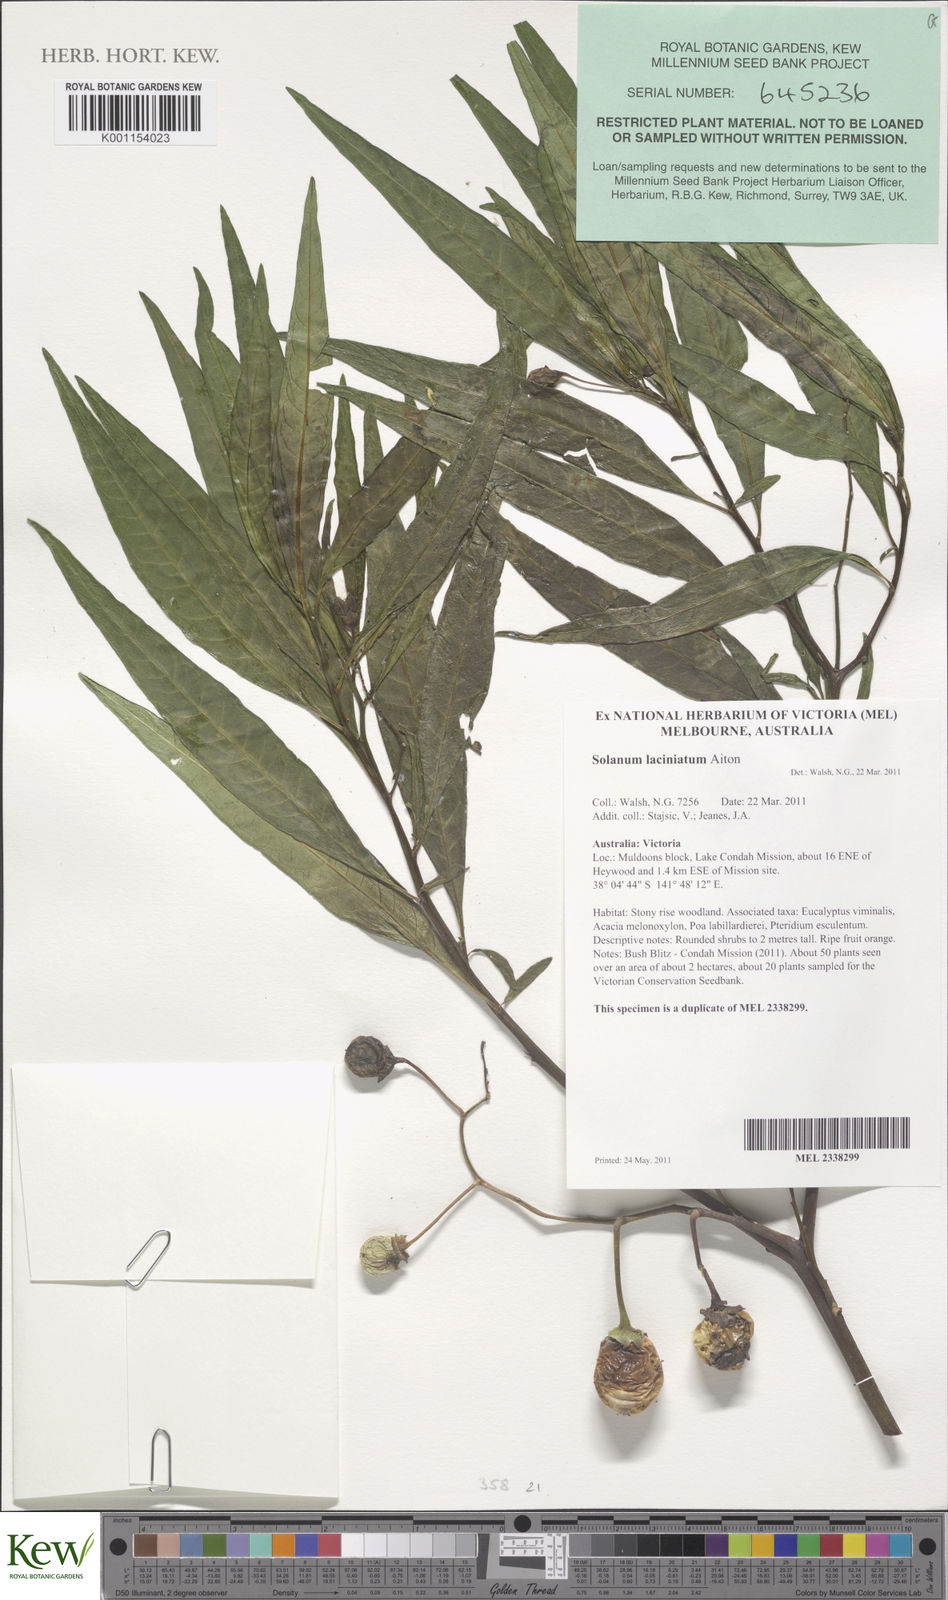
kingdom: Plantae
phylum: Tracheophyta
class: Magnoliopsida
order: Solanales
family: Solanaceae
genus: Solanum
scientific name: Solanum laciniatum
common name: Kangaroo-apple
